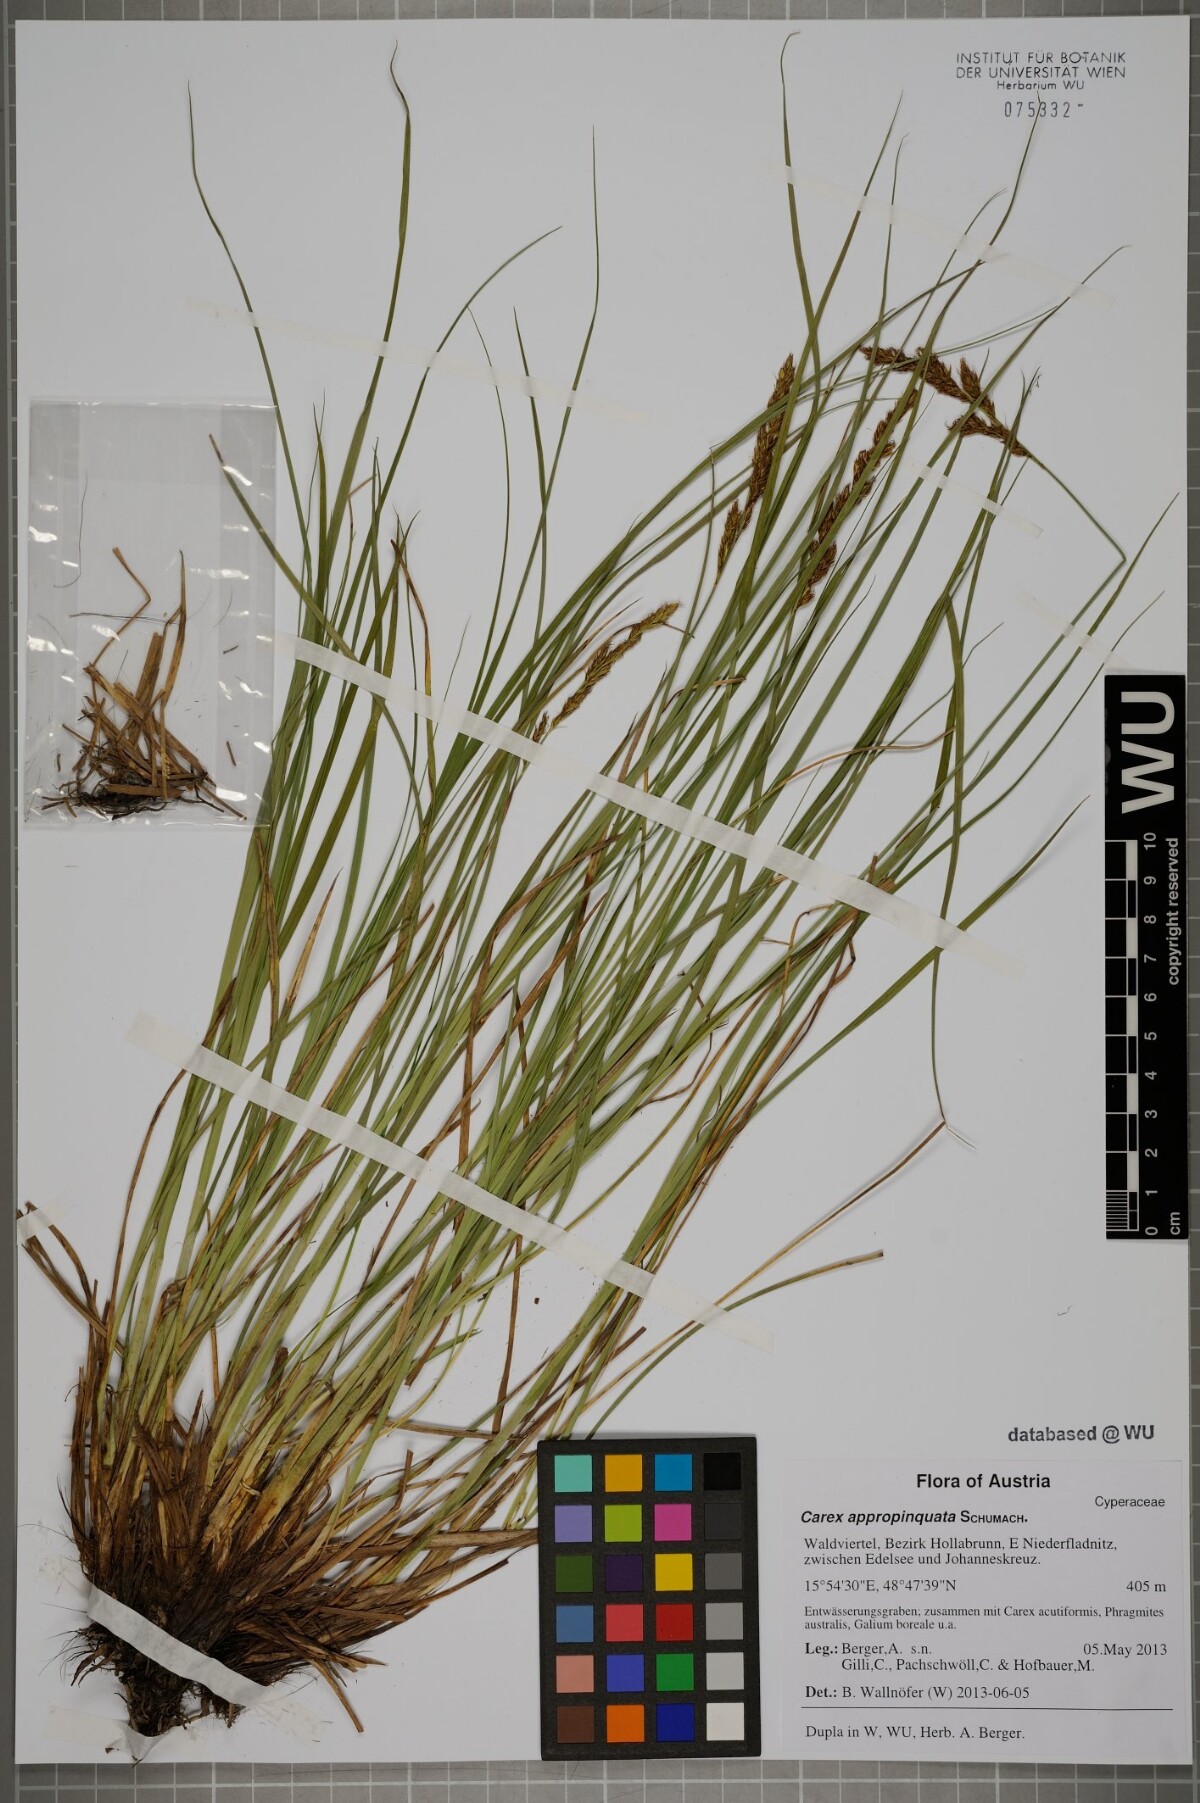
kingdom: Plantae
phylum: Tracheophyta
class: Liliopsida
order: Poales
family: Cyperaceae
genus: Carex
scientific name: Carex appropinquata
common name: Fibrous tussock-sedge
